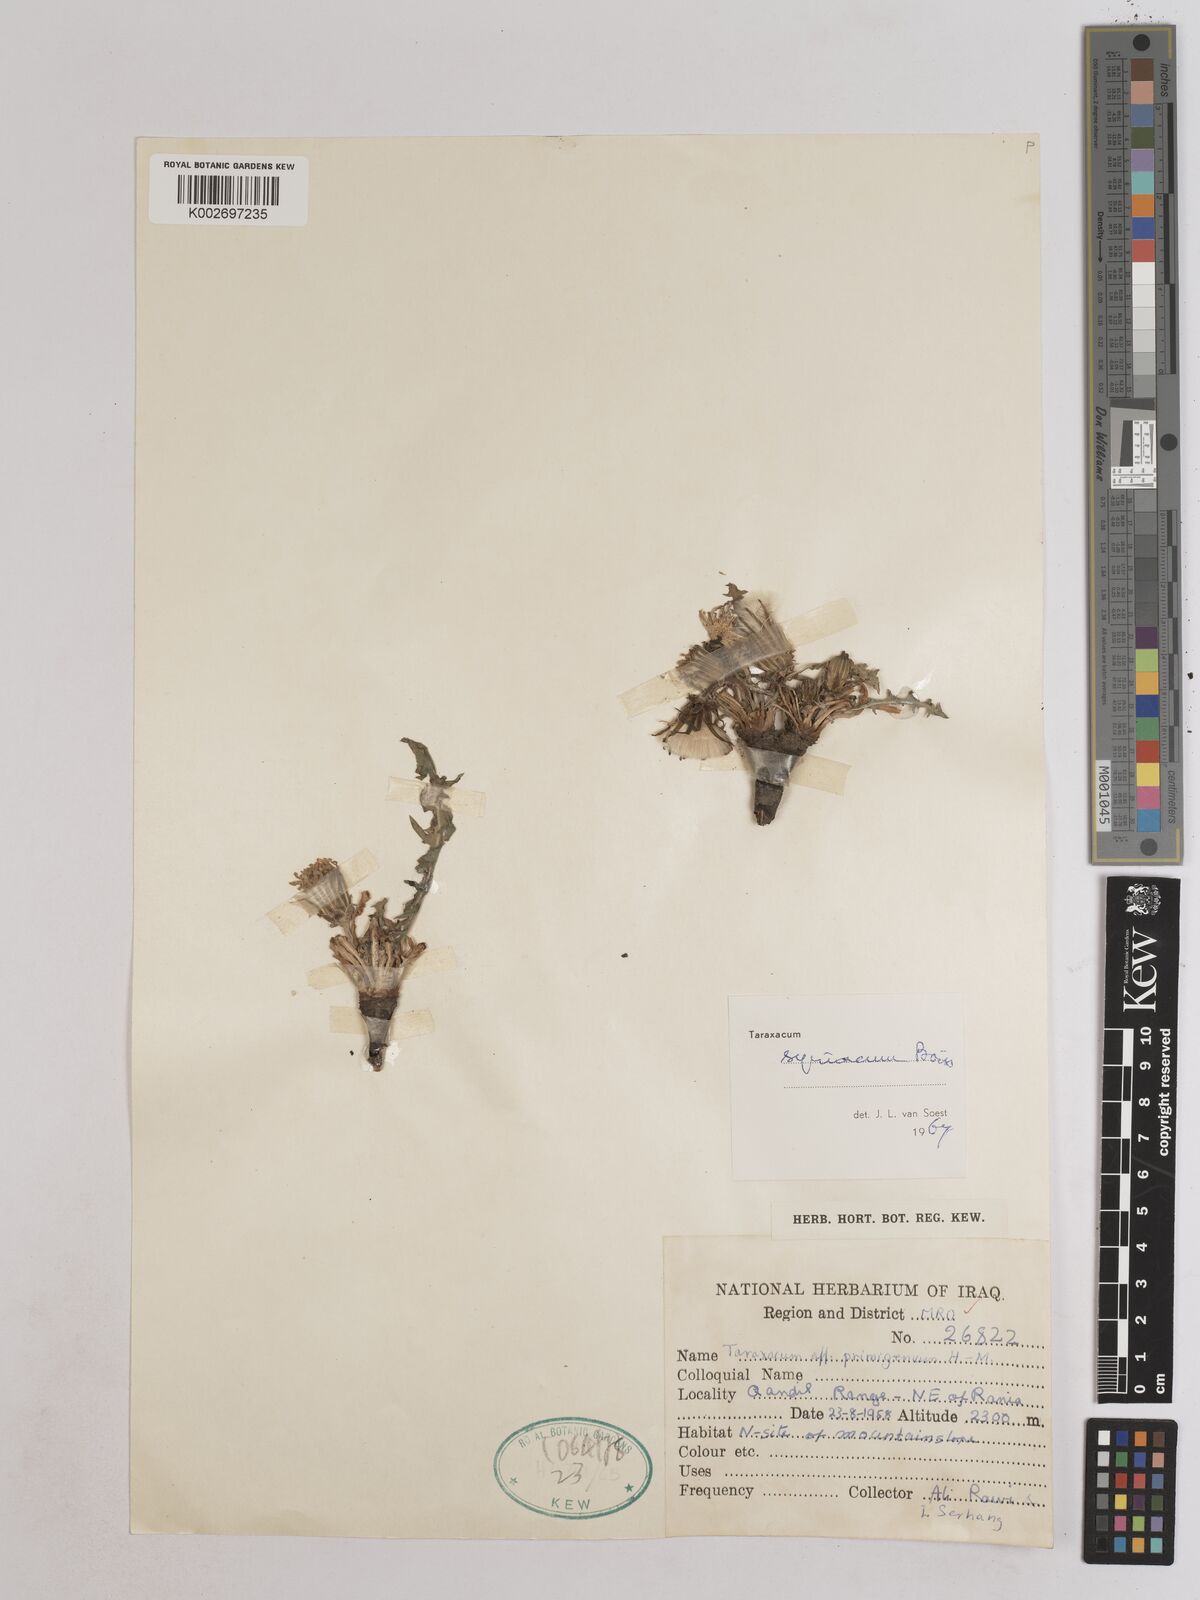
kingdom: Plantae
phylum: Tracheophyta
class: Magnoliopsida
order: Asterales
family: Asteraceae
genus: Taraxacum
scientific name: Taraxacum syriacum
